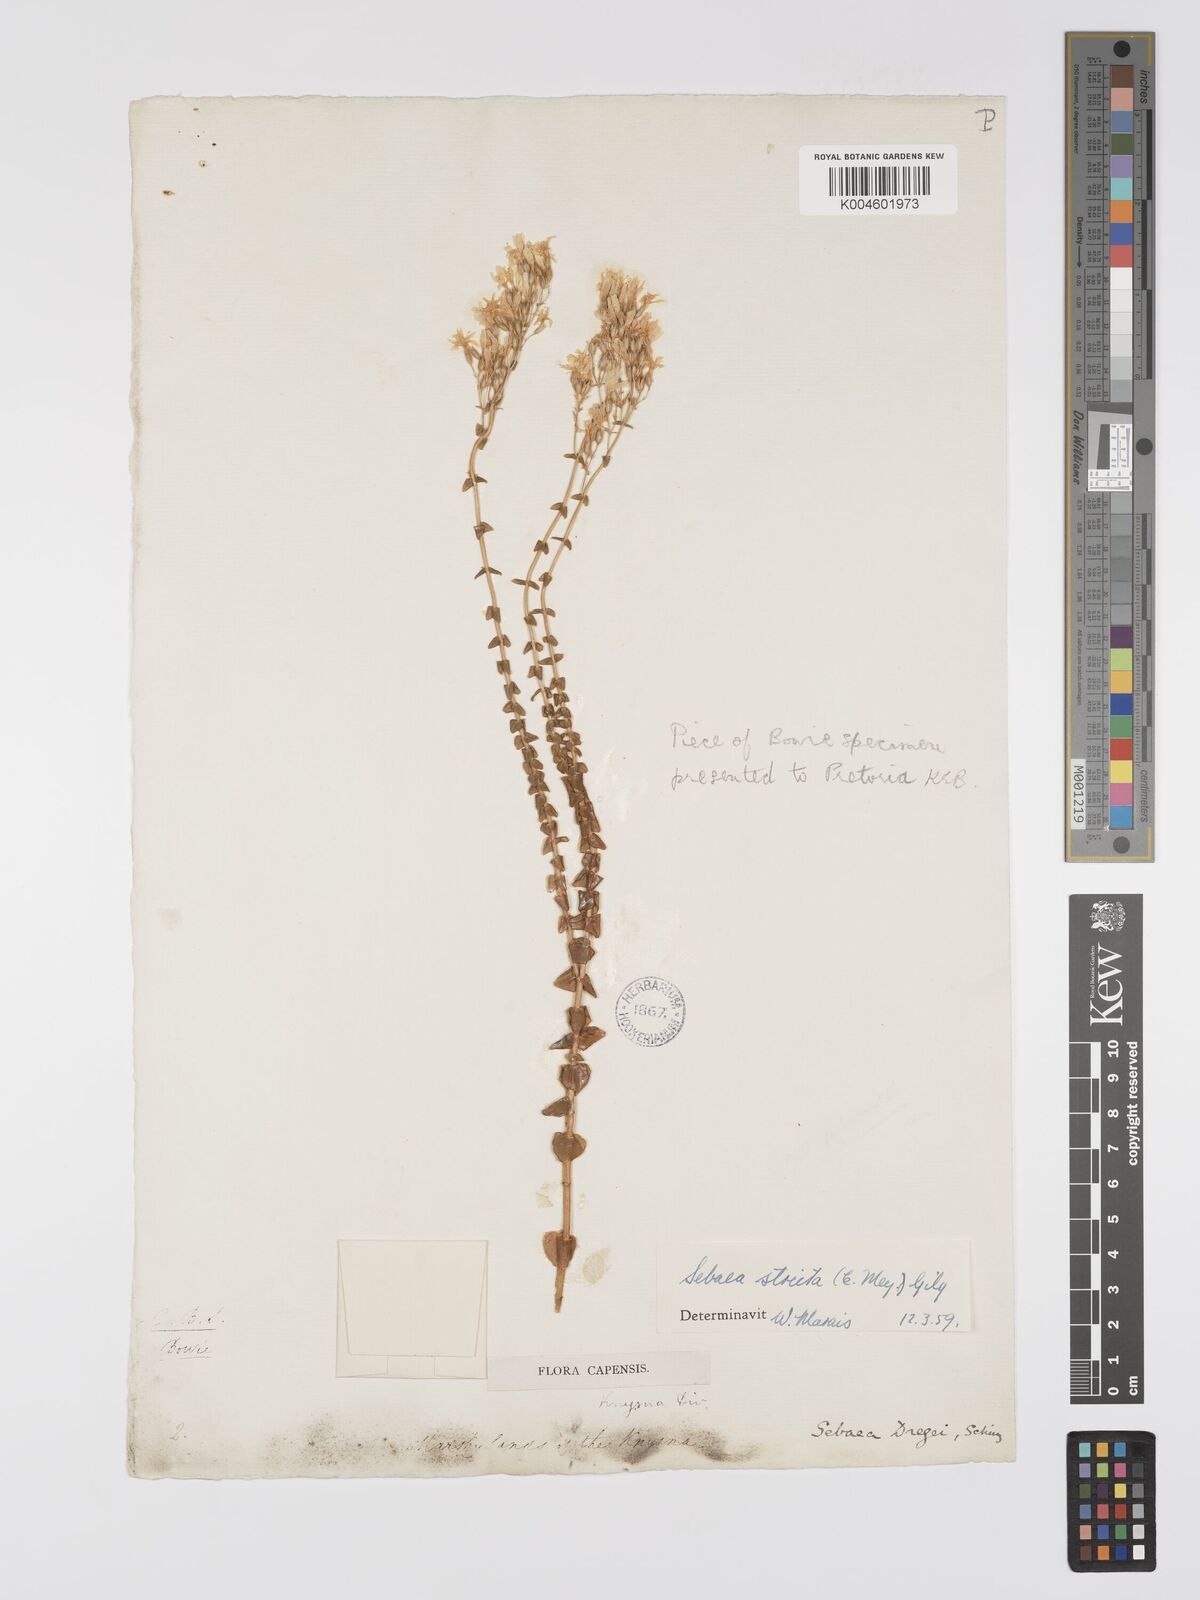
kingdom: Plantae
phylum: Tracheophyta
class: Magnoliopsida
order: Gentianales
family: Gentianaceae
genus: Sebaea
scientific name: Sebaea
